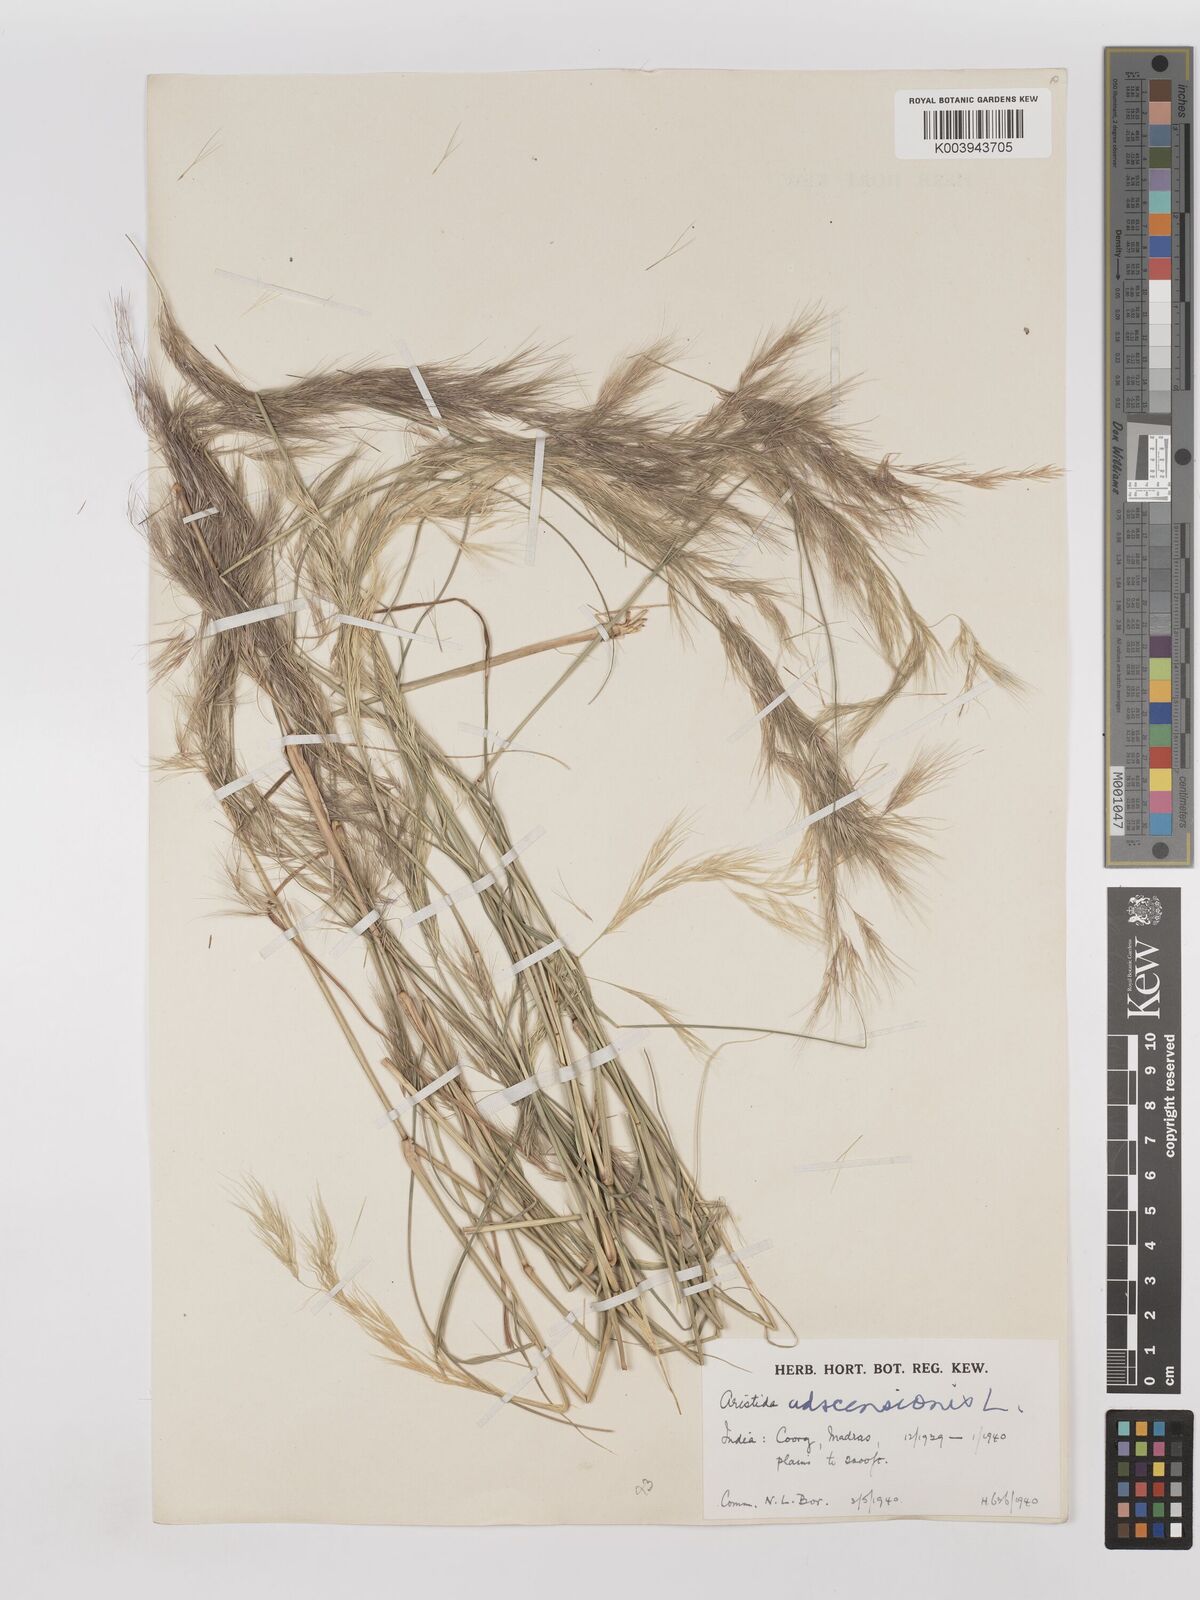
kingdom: Plantae
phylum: Tracheophyta
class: Liliopsida
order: Poales
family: Poaceae
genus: Aristida
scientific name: Aristida adscensionis
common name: Sixweeks threeawn
